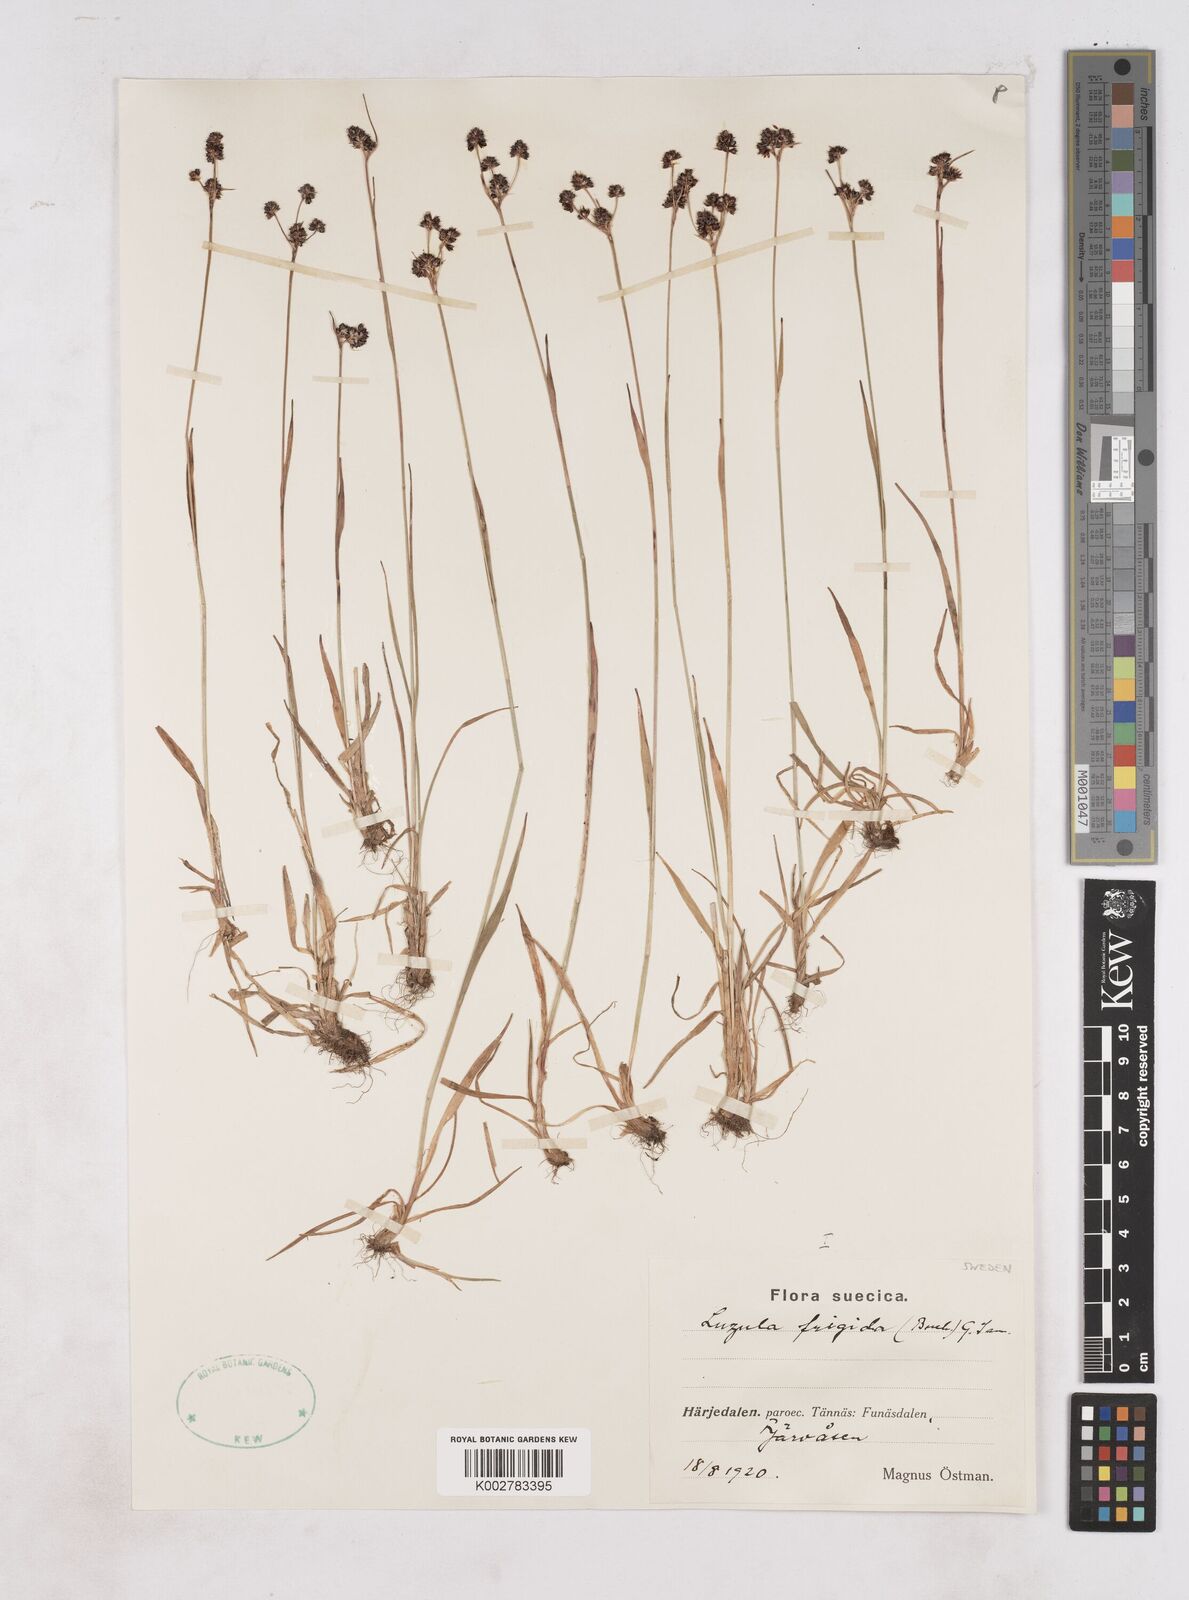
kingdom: Plantae
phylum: Tracheophyta
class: Liliopsida
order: Poales
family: Juncaceae
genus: Luzula
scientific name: Luzula multiflora
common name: Heath wood-rush
